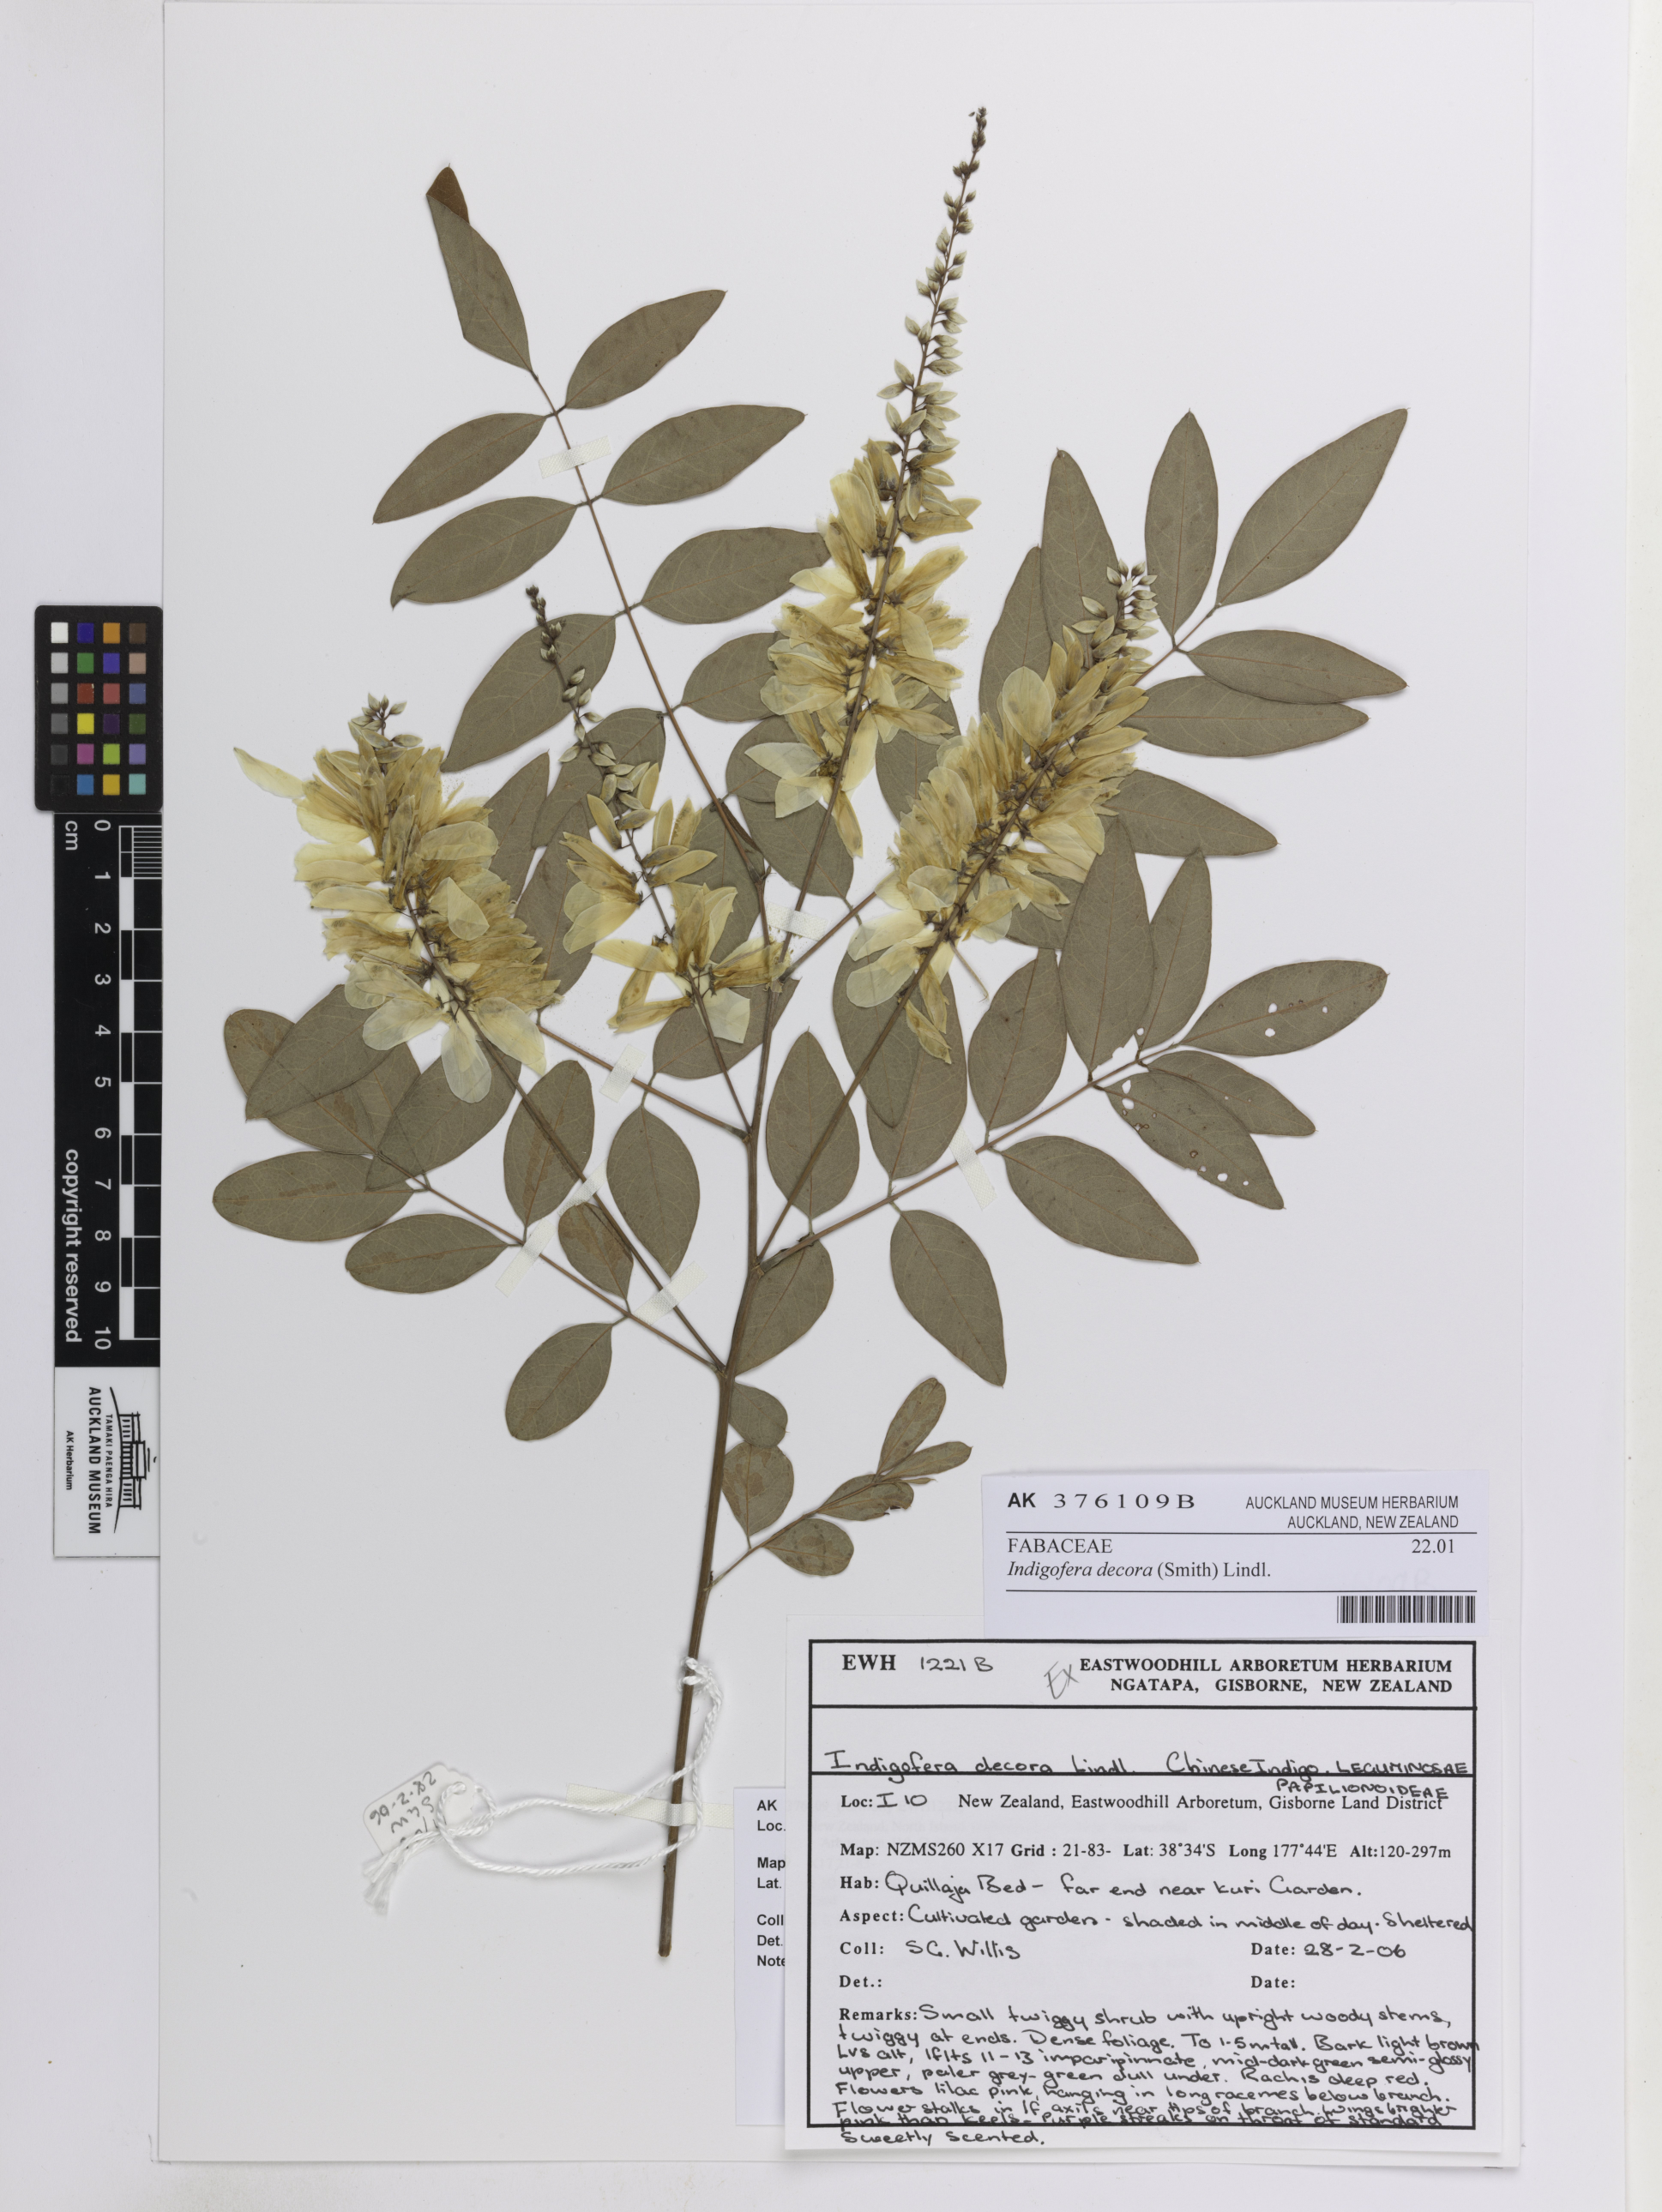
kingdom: Plantae
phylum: Tracheophyta
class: Magnoliopsida
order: Fabales
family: Fabaceae
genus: Indigofera
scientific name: Indigofera incarnata
